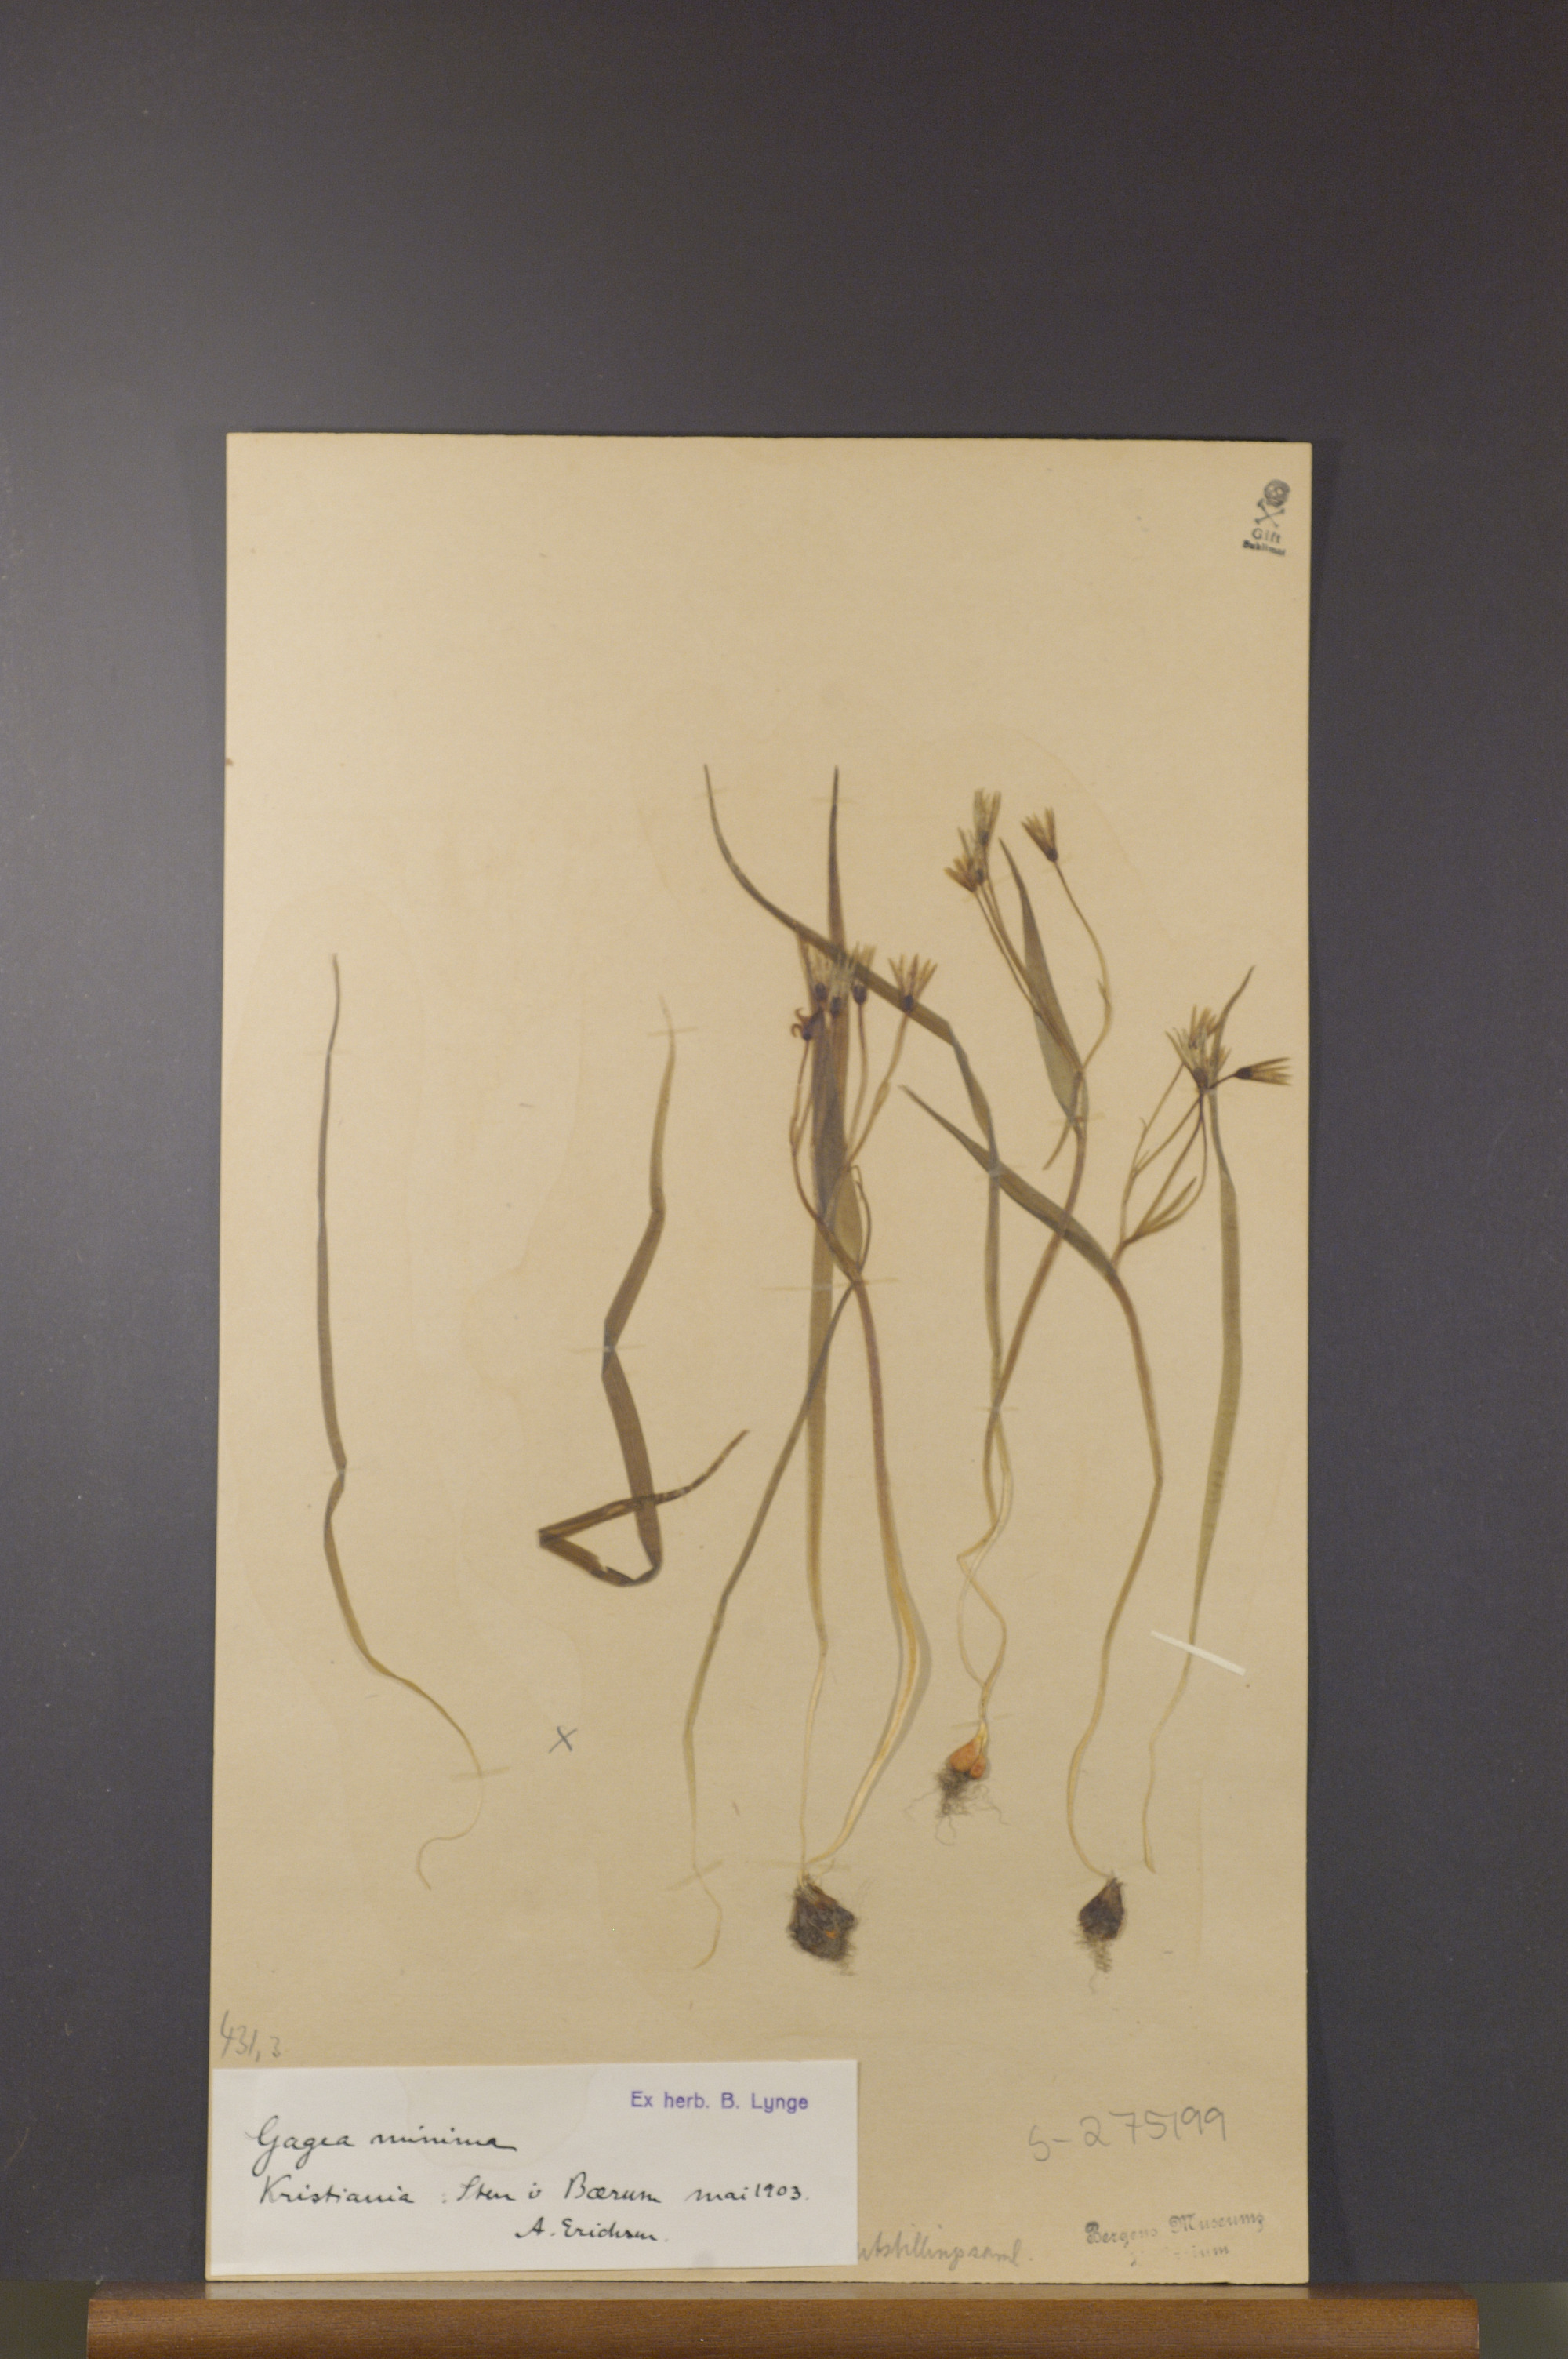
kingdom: Plantae
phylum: Tracheophyta
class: Liliopsida
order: Liliales
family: Liliaceae
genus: Gagea
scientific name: Gagea minima
